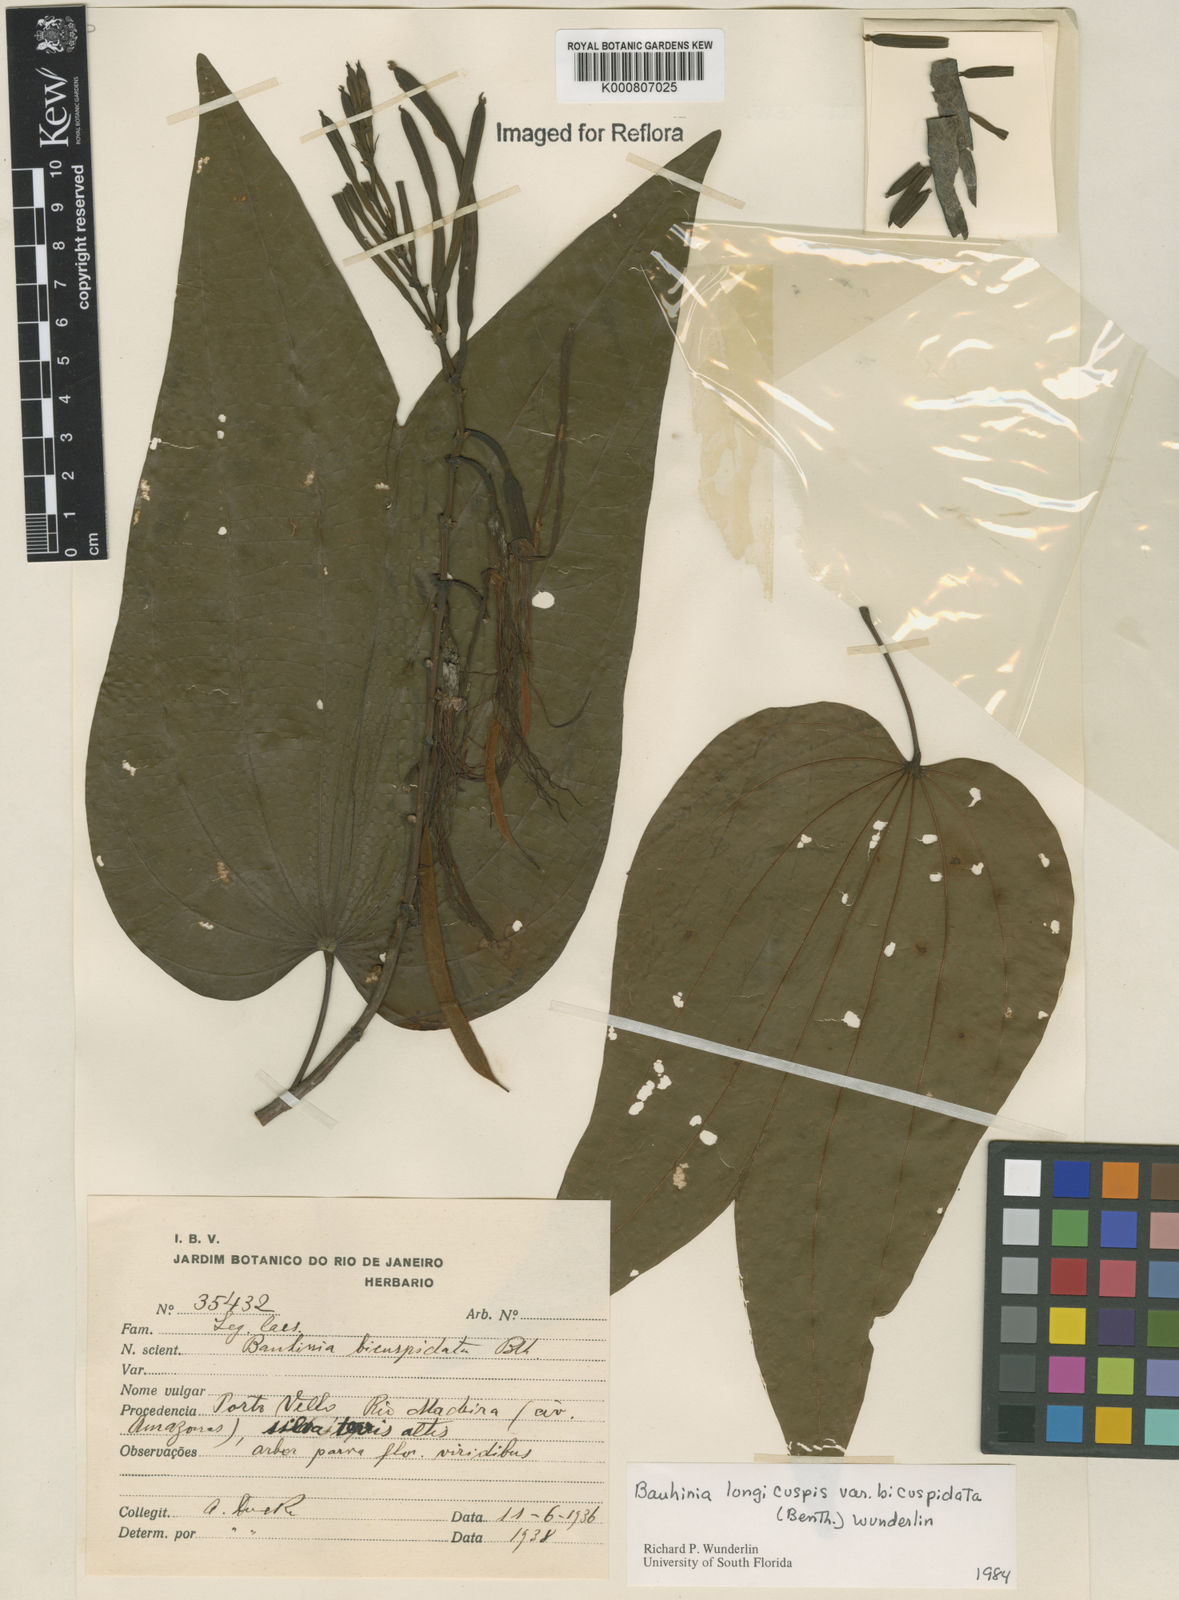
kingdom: Plantae
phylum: Tracheophyta
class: Magnoliopsida
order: Fabales
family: Fabaceae
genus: Bauhinia
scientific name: Bauhinia longicuspis
